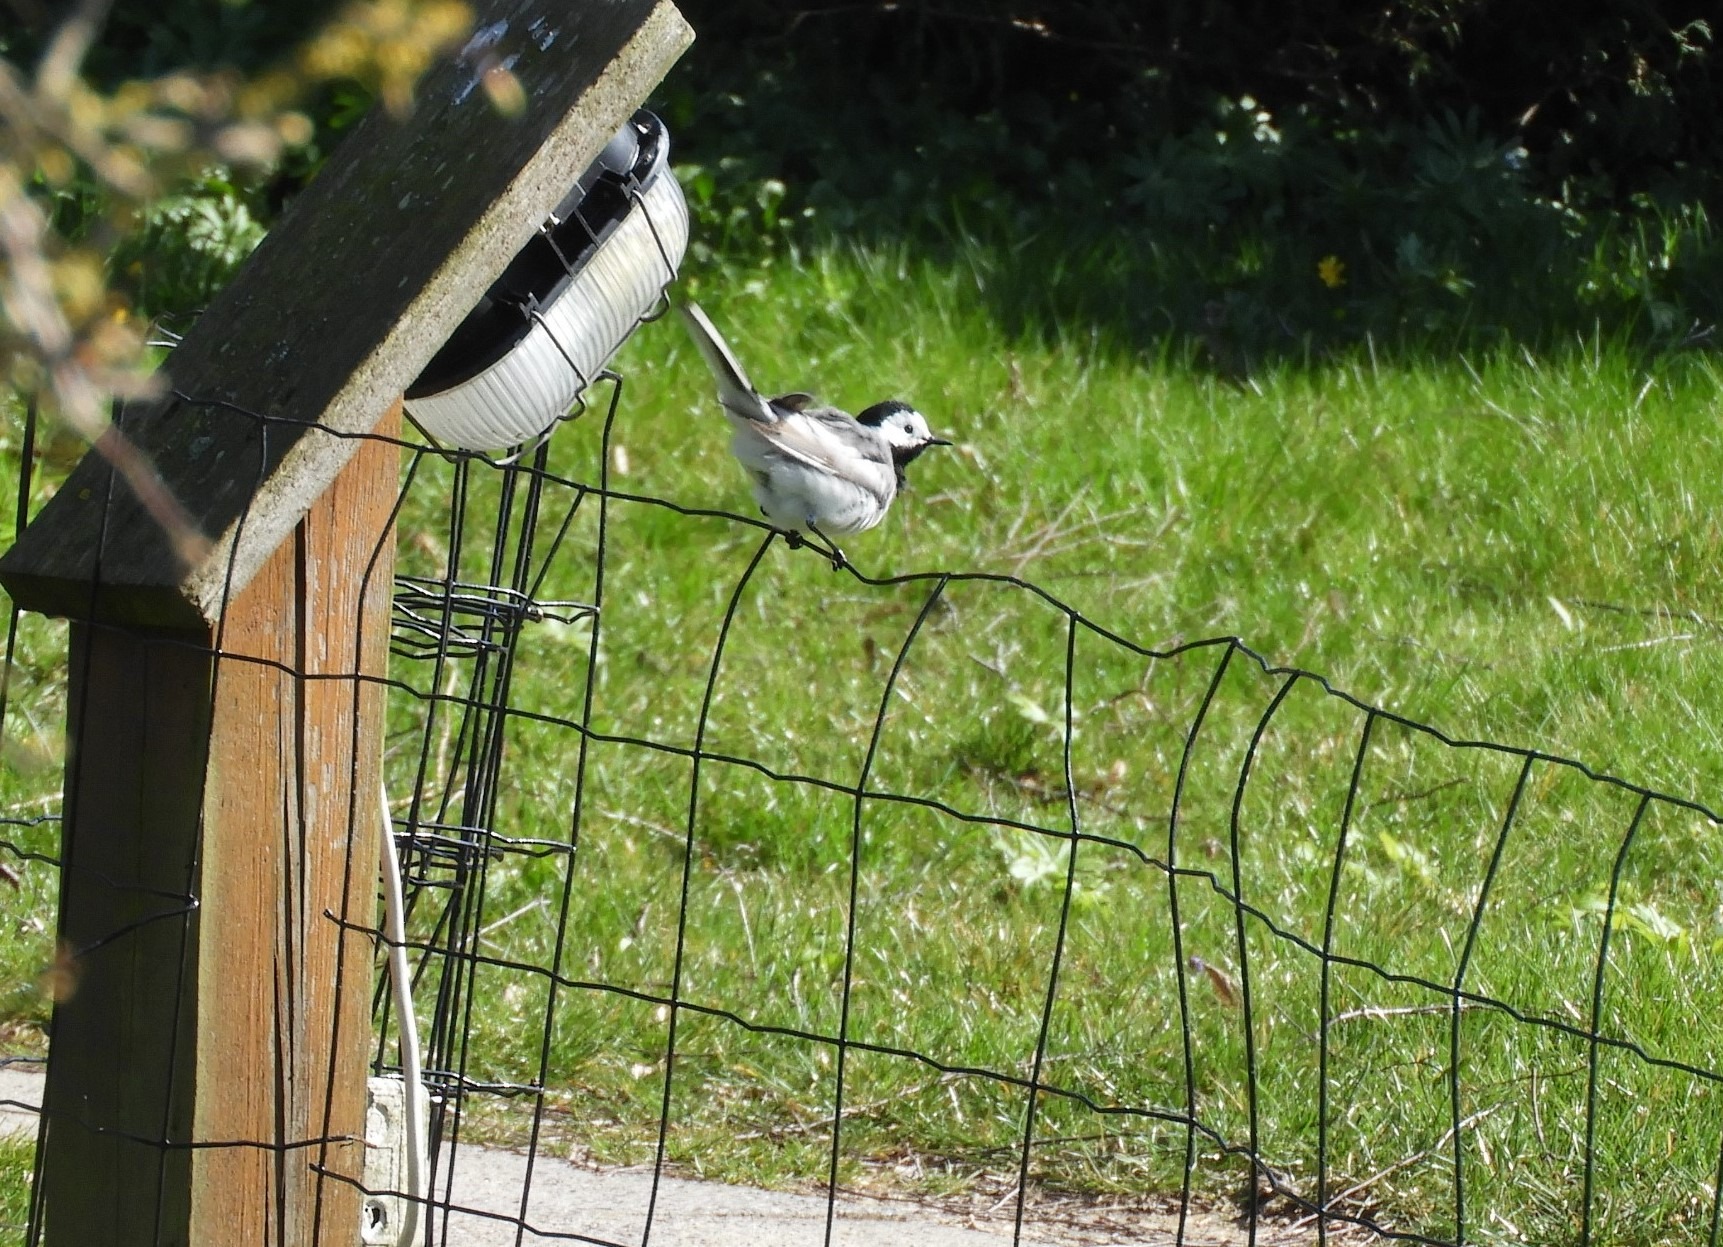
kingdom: Animalia
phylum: Chordata
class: Aves
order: Passeriformes
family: Motacillidae
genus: Motacilla
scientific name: Motacilla alba
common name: Hvid vipstjert
